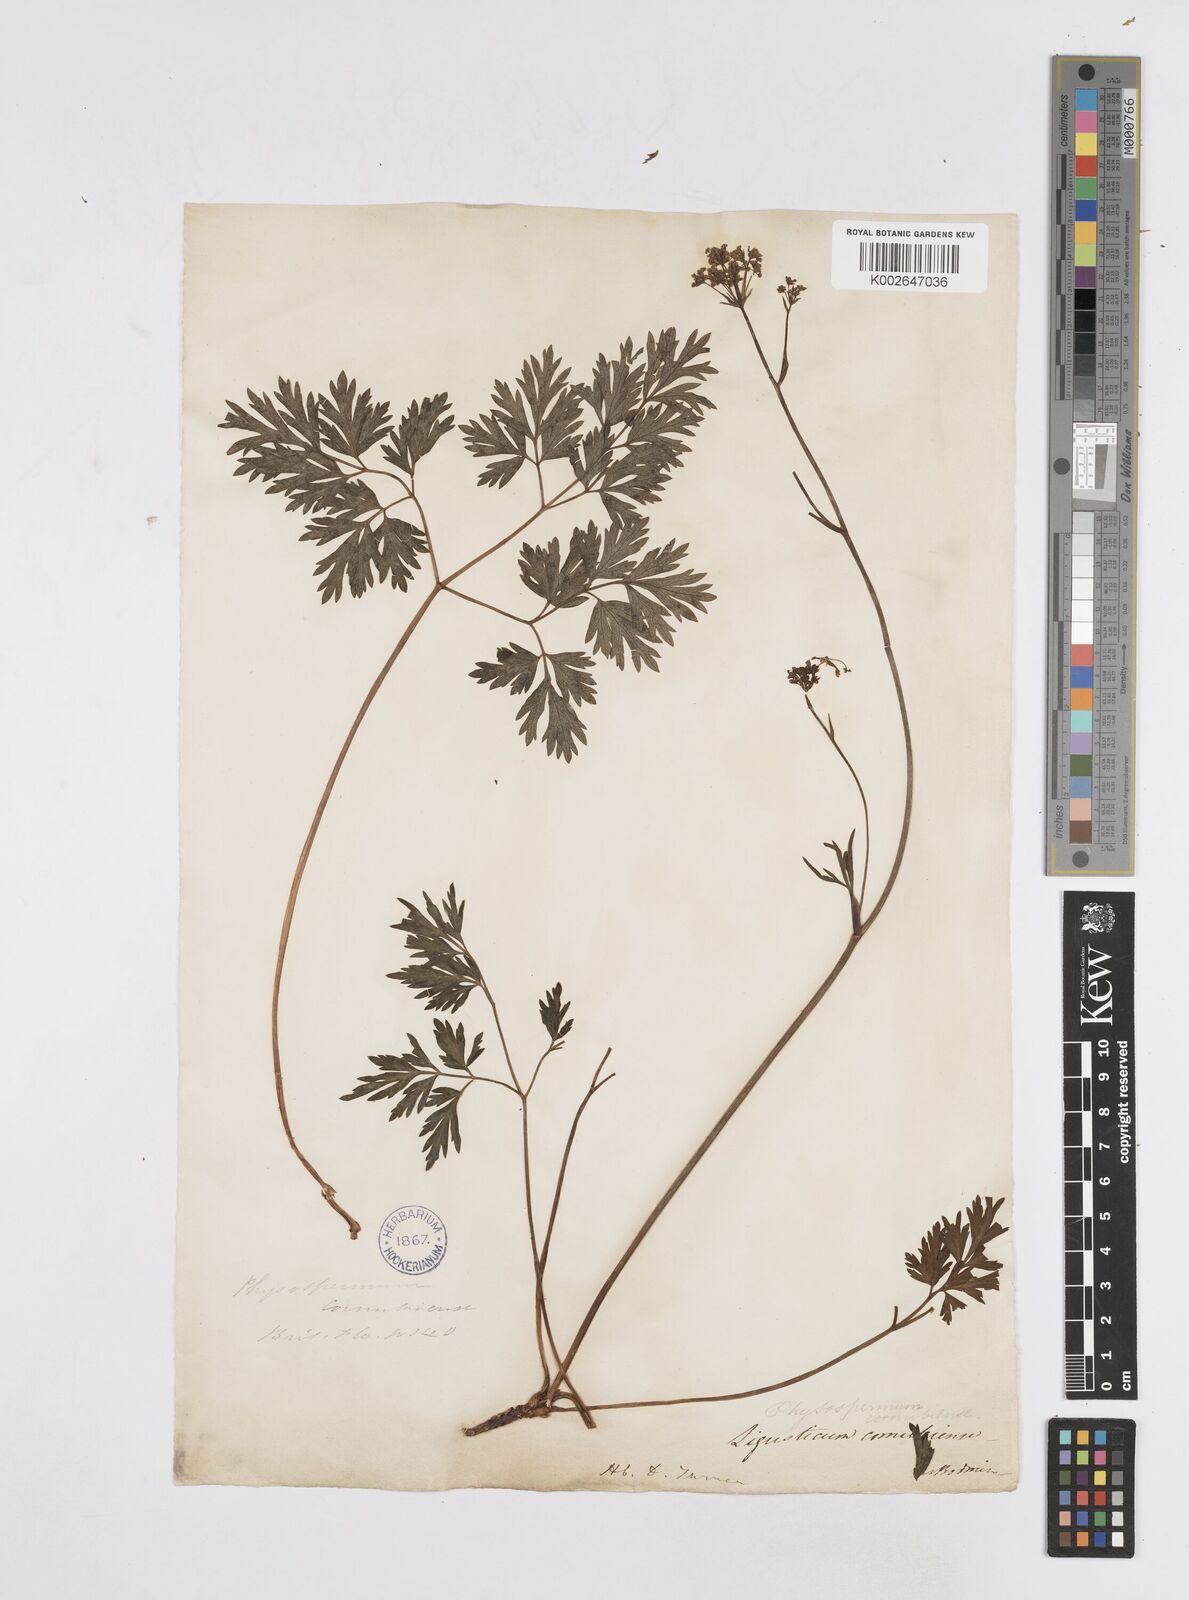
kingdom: Plantae
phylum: Tracheophyta
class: Magnoliopsida
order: Apiales
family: Apiaceae
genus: Physospermum
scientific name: Physospermum cornubiense
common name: Bladderseed
